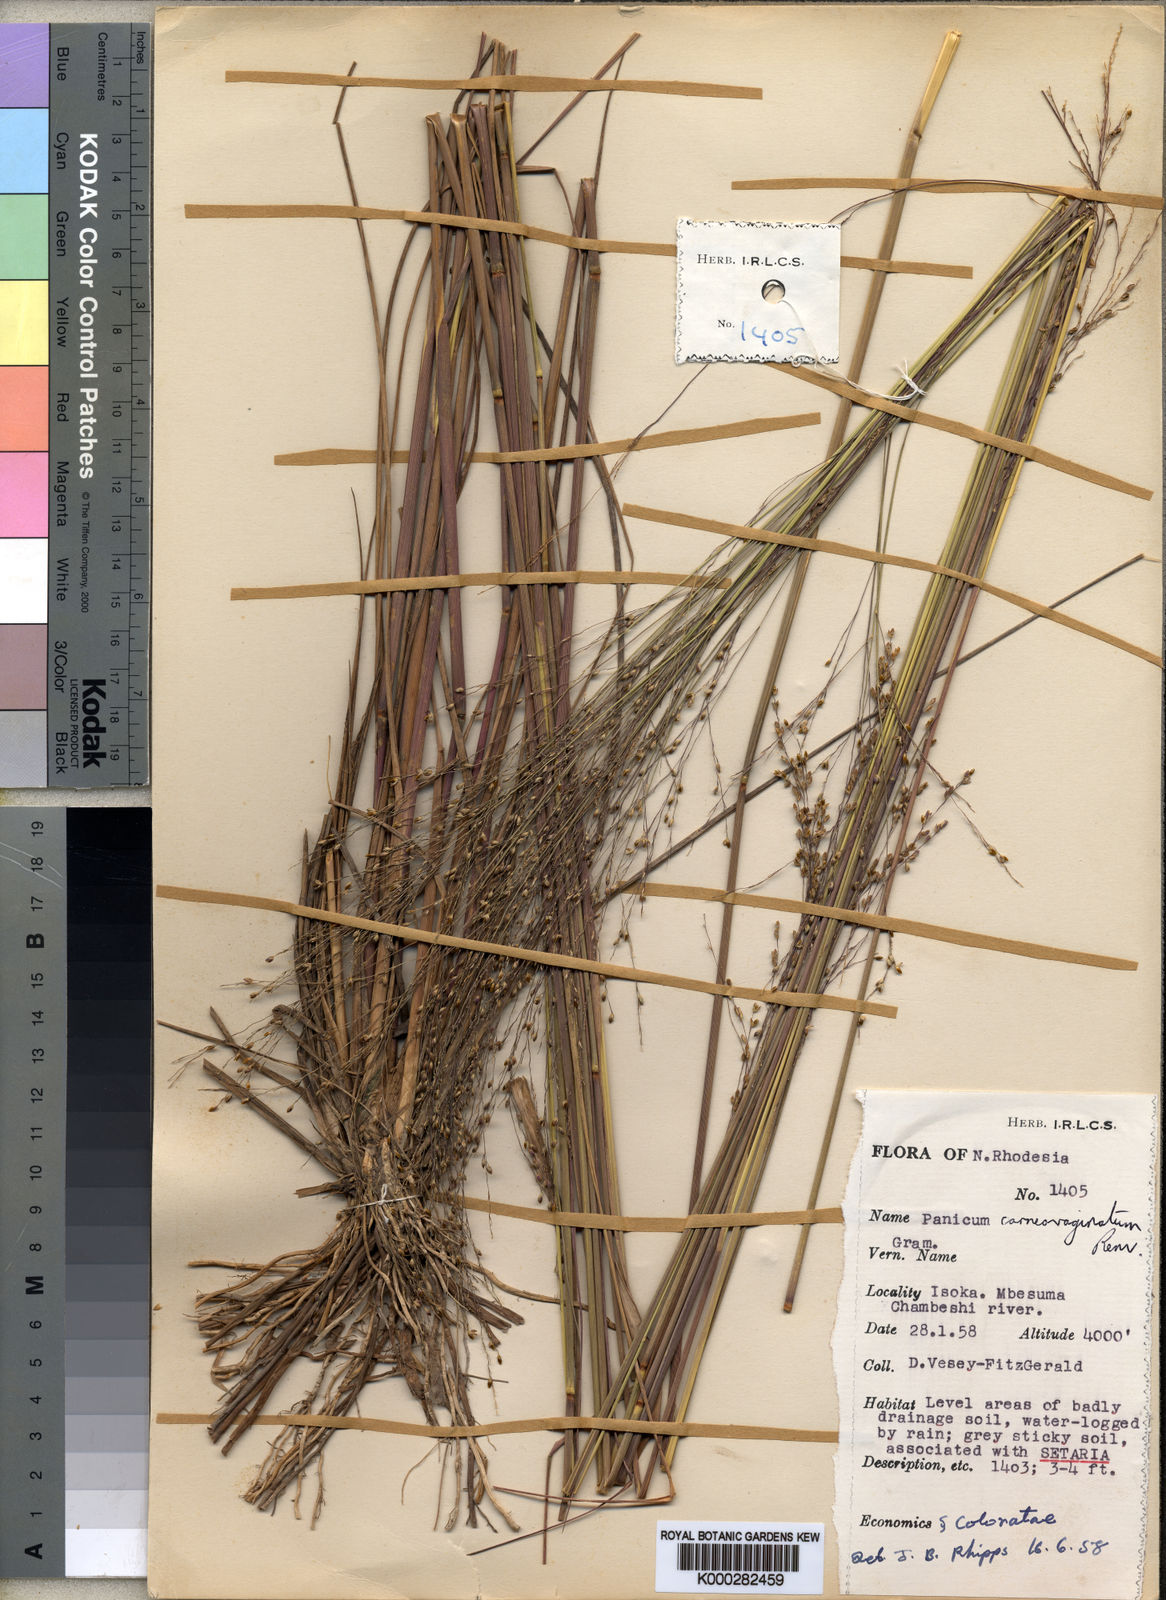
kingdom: Plantae
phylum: Tracheophyta
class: Liliopsida
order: Poales
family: Poaceae
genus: Panicum
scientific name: Panicum carneovaginatum
